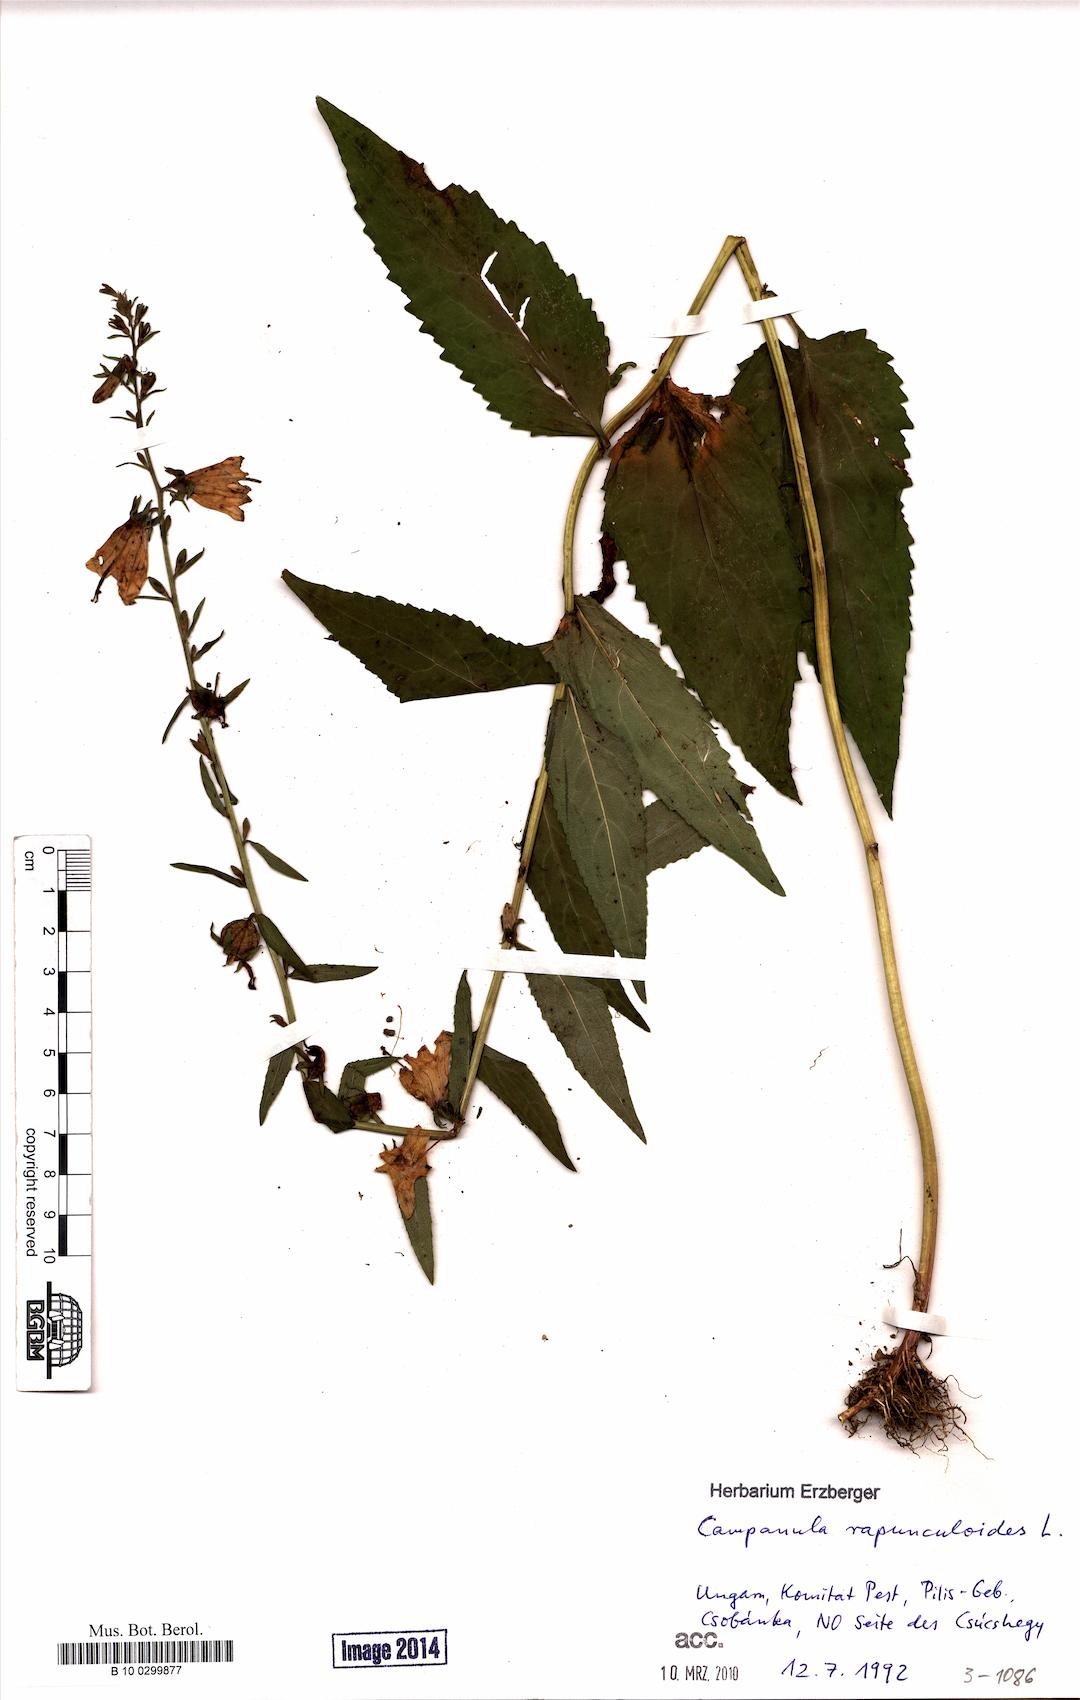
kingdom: Plantae
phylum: Tracheophyta
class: Magnoliopsida
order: Asterales
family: Campanulaceae
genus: Campanula
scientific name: Campanula rapunculoides
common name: Creeping bellflower
